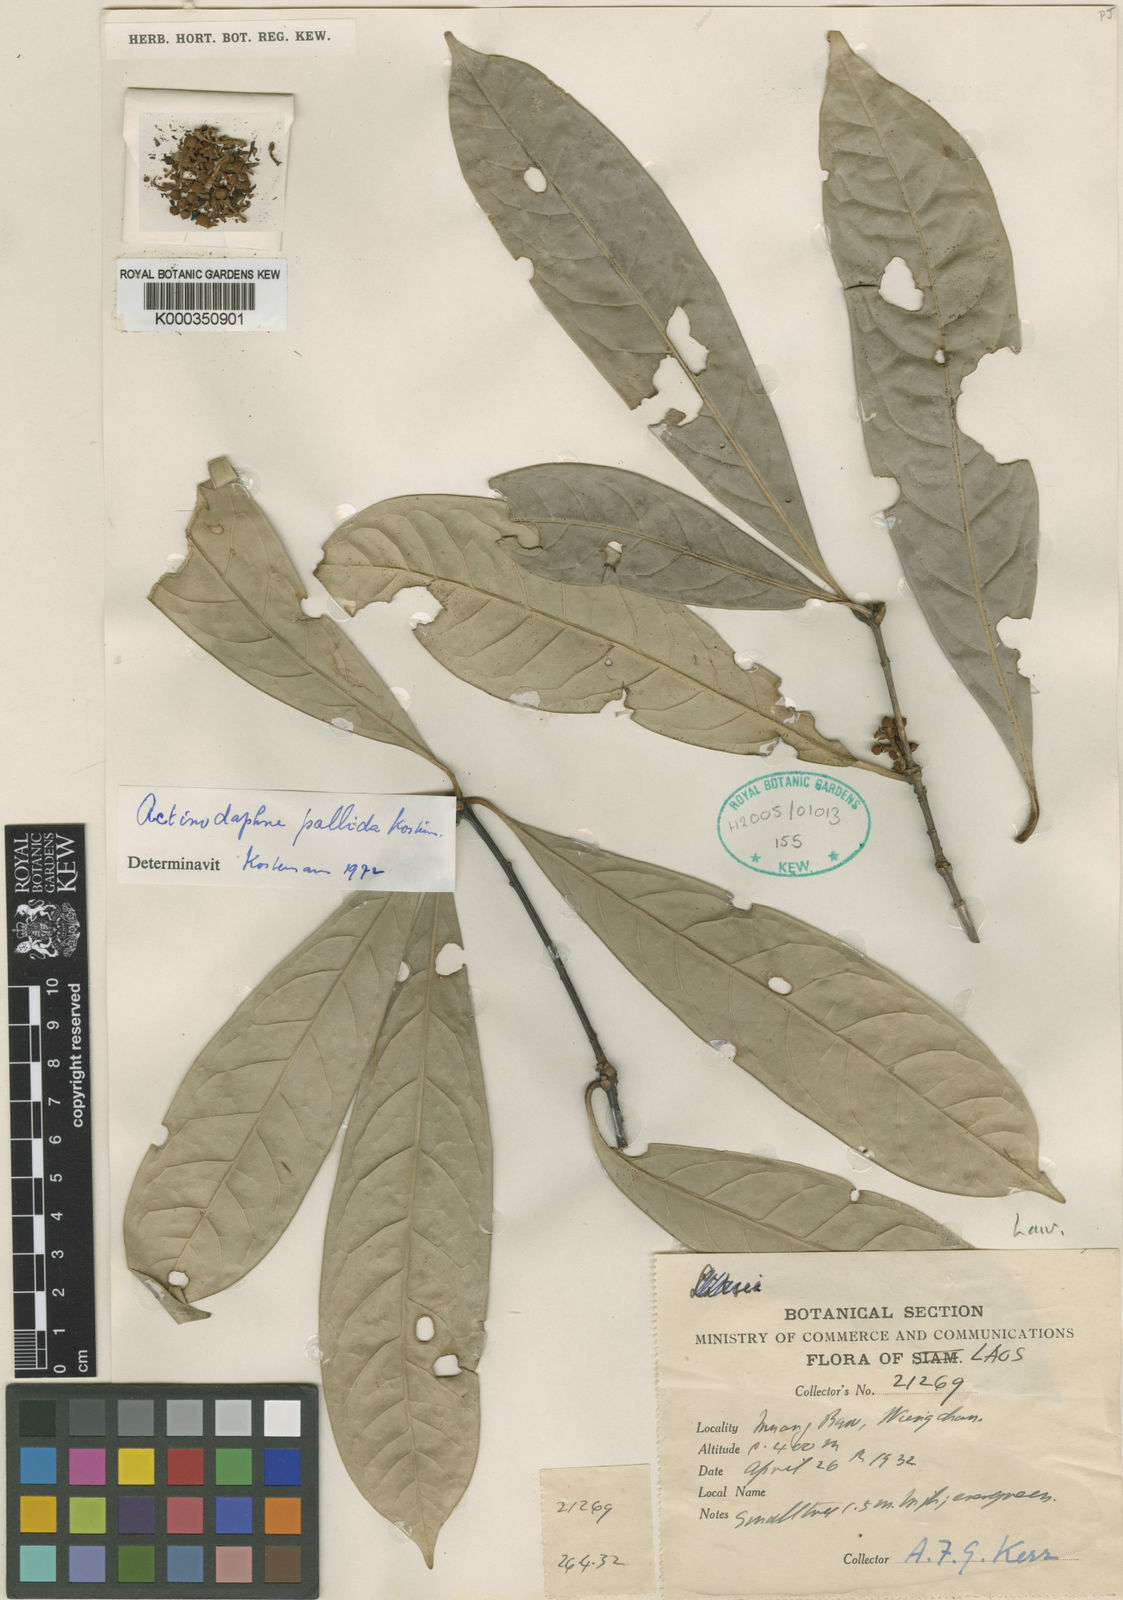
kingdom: Plantae
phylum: Tracheophyta
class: Magnoliopsida
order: Laurales
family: Lauraceae
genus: Actinodaphne
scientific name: Actinodaphne
